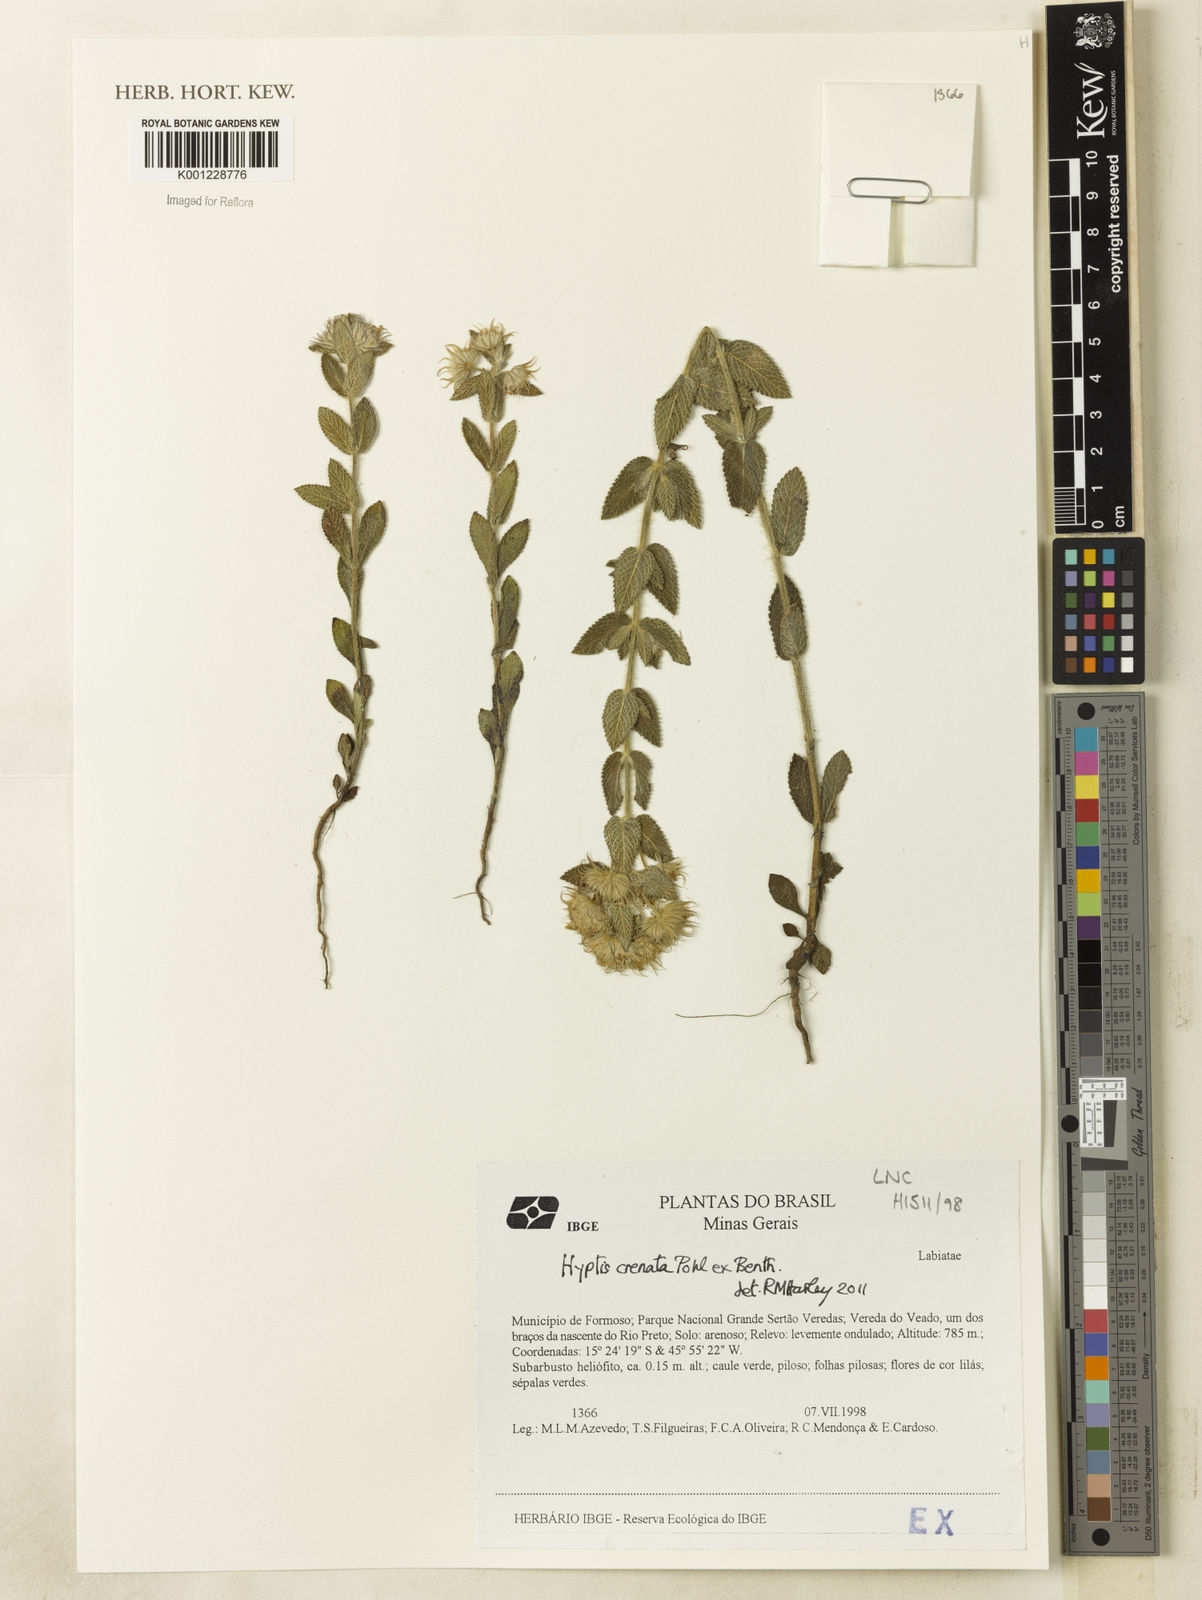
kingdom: Plantae
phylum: Tracheophyta
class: Magnoliopsida
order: Lamiales
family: Lamiaceae
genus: Hyptis
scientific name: Hyptis crenata
